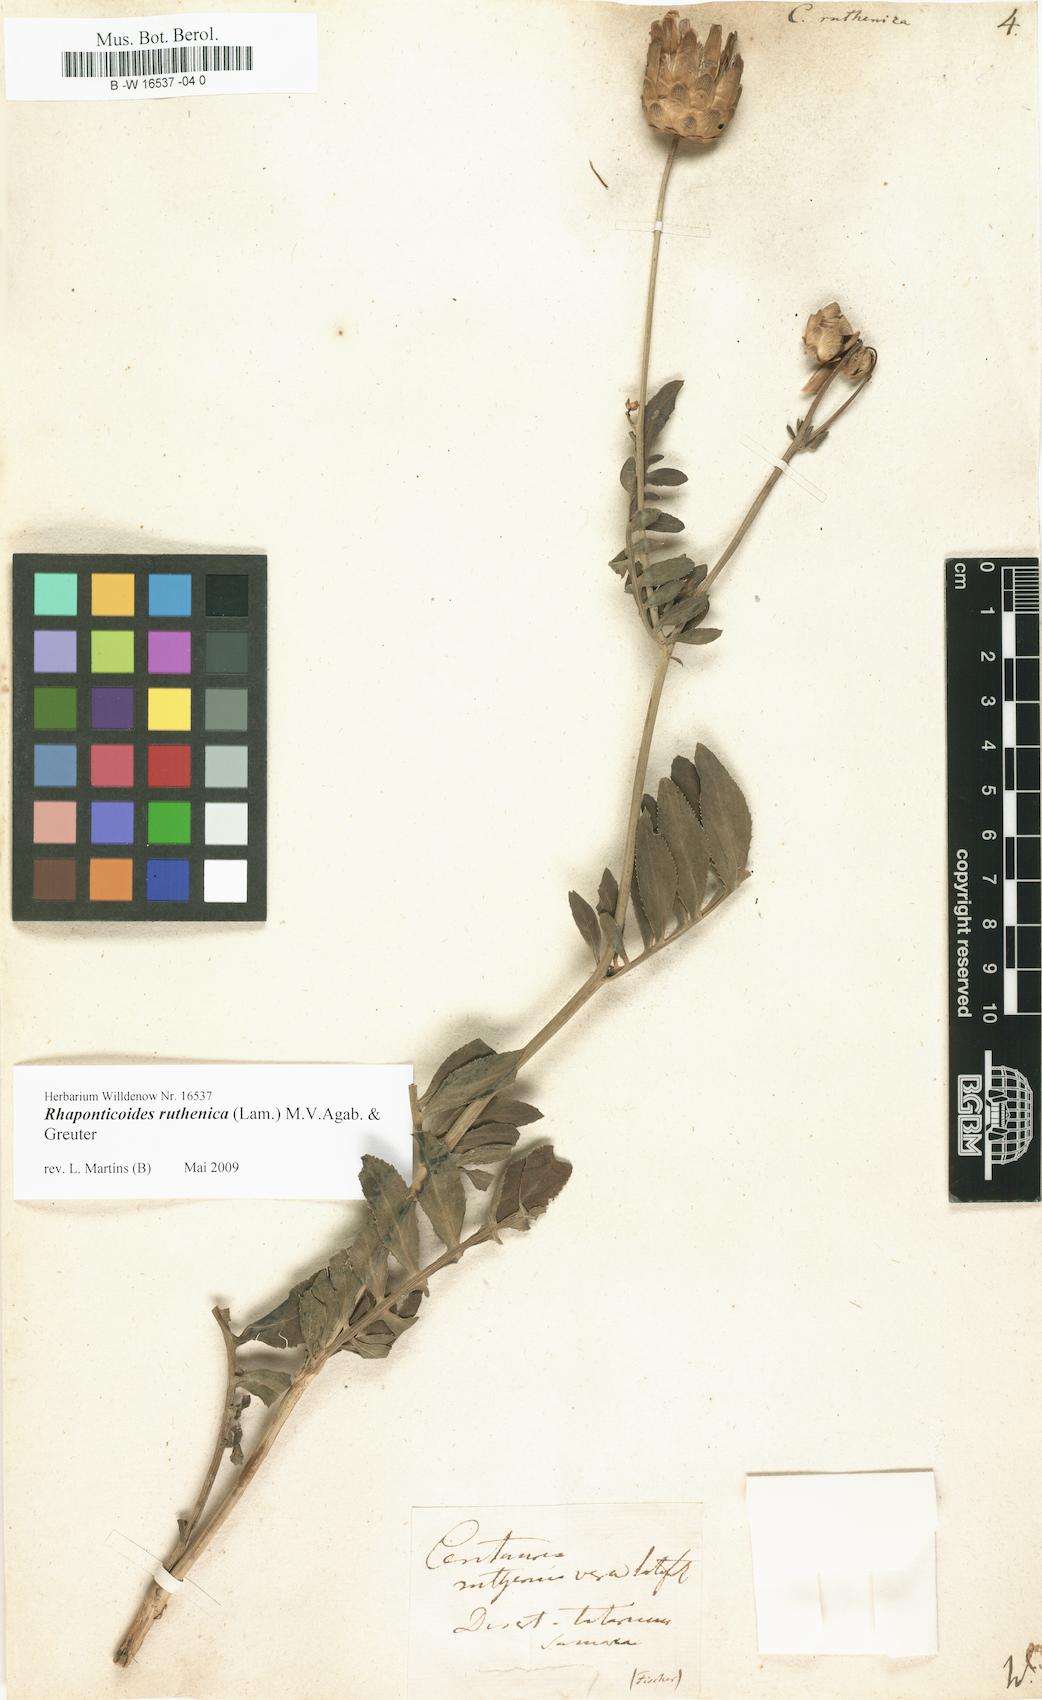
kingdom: Plantae
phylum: Tracheophyta
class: Magnoliopsida
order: Asterales
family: Asteraceae
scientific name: Asteraceae
